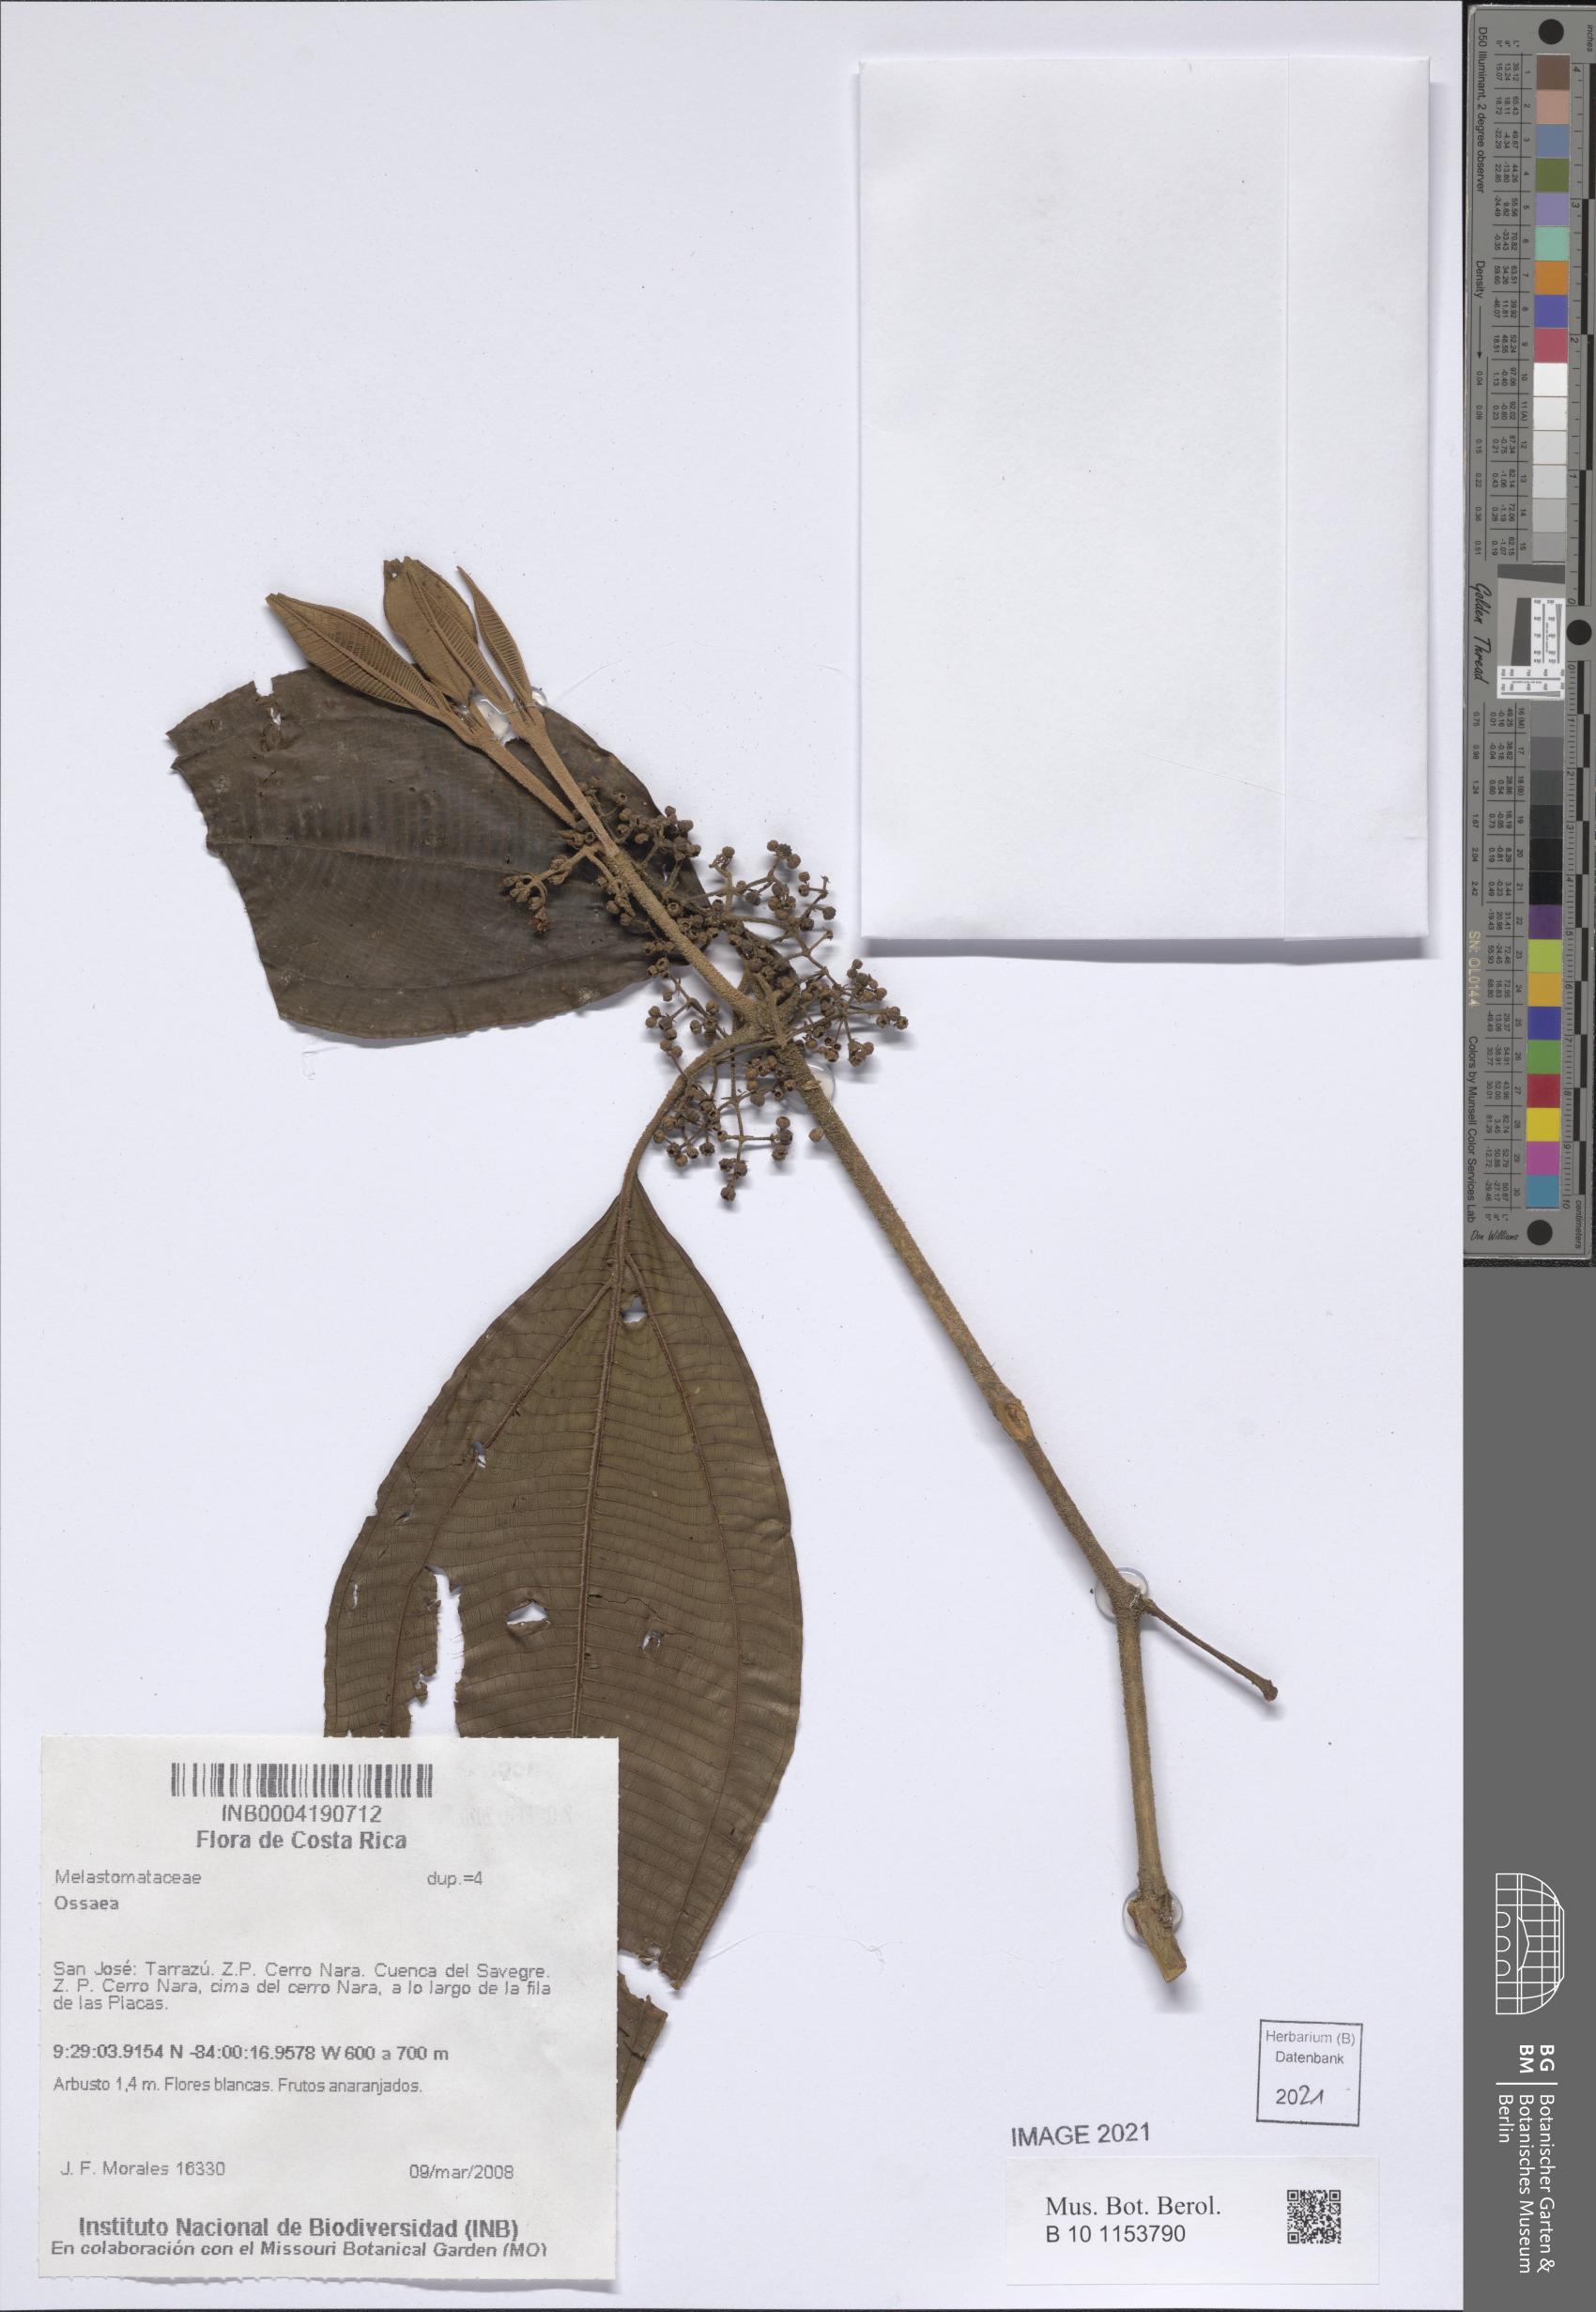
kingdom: Plantae
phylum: Tracheophyta
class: Magnoliopsida
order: Myrtales
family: Melastomataceae
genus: Ossaea
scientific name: Ossaea
